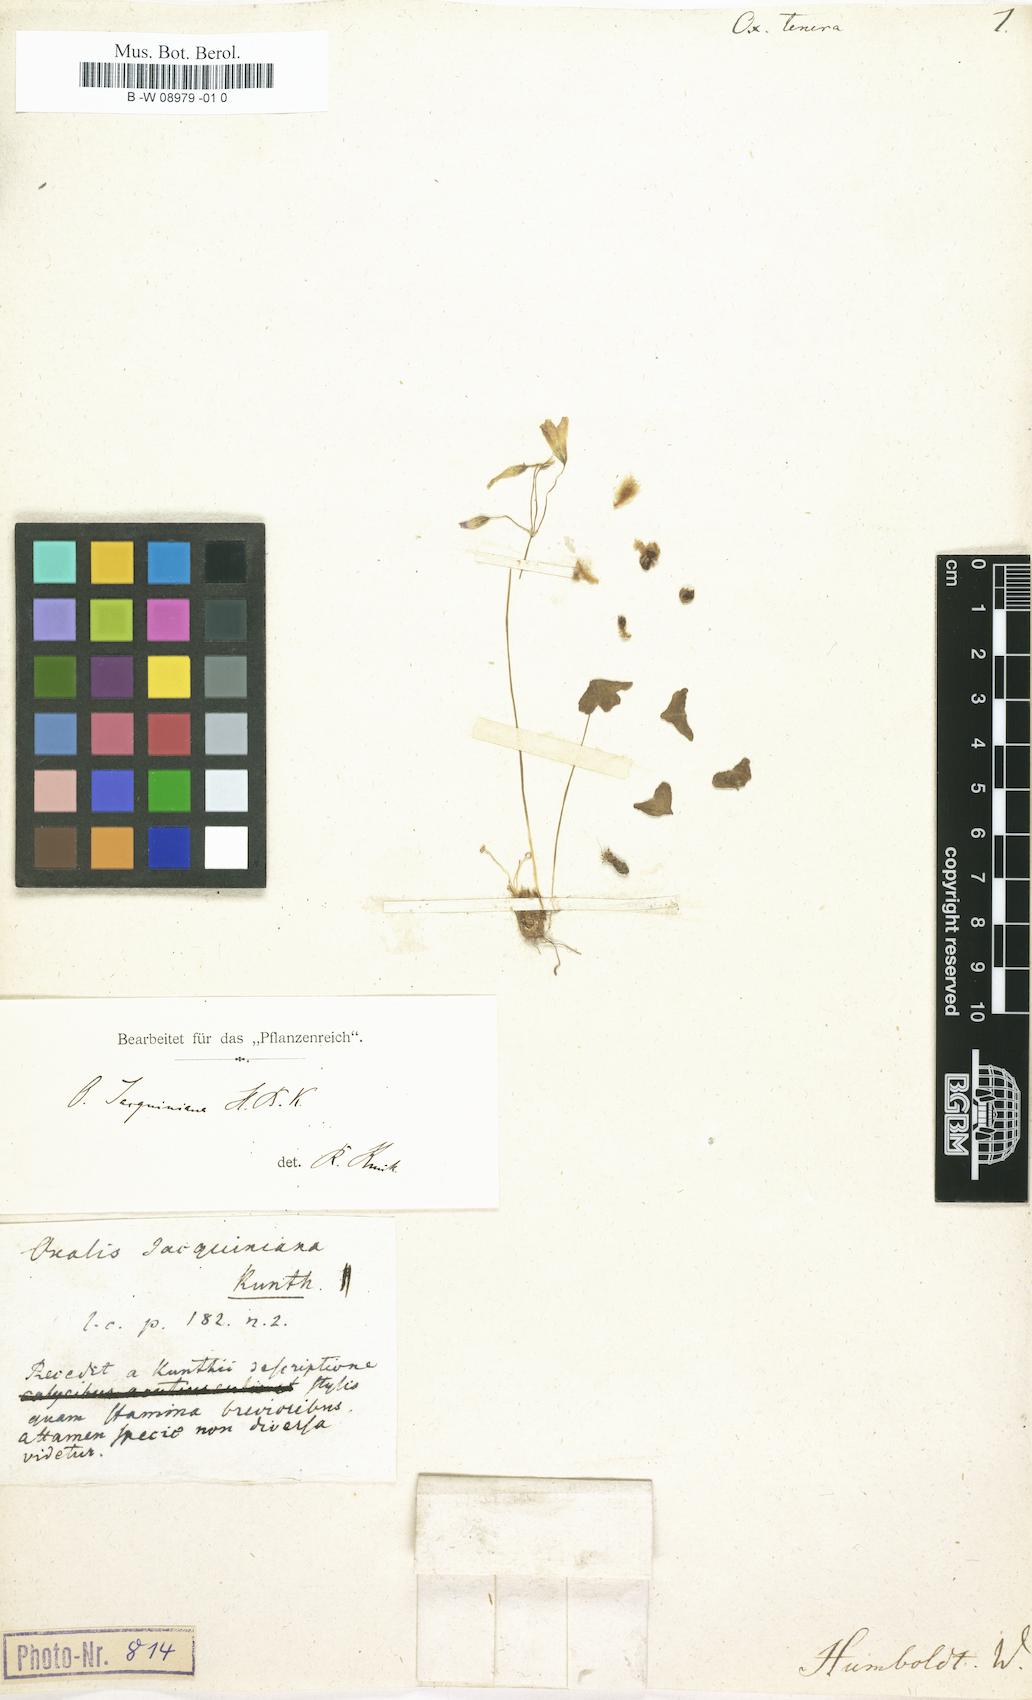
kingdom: Plantae
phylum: Tracheophyta
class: Magnoliopsida
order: Oxalidales
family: Oxalidaceae
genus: Oxalis
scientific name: Oxalis
